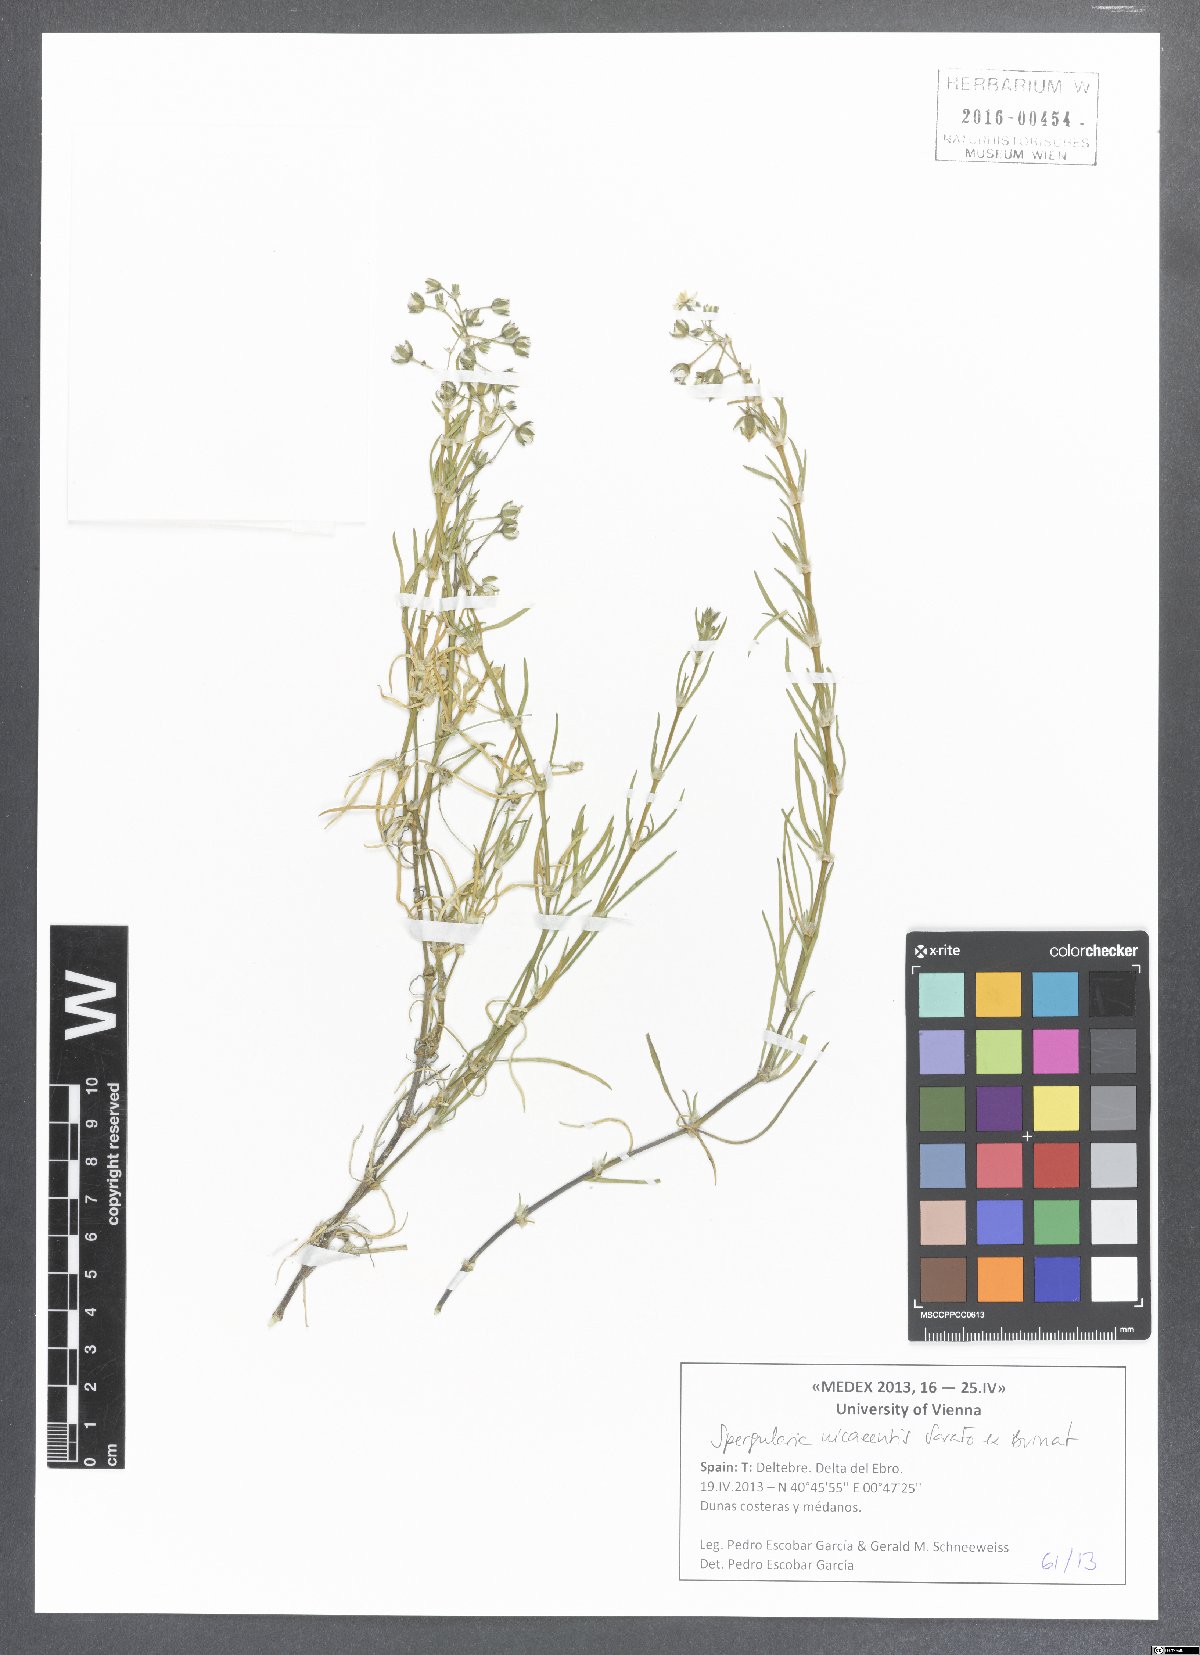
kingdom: Plantae
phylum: Tracheophyta
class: Magnoliopsida
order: Caryophyllales
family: Caryophyllaceae
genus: Spergularia
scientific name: Spergularia media
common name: Greater sea-spurrey
